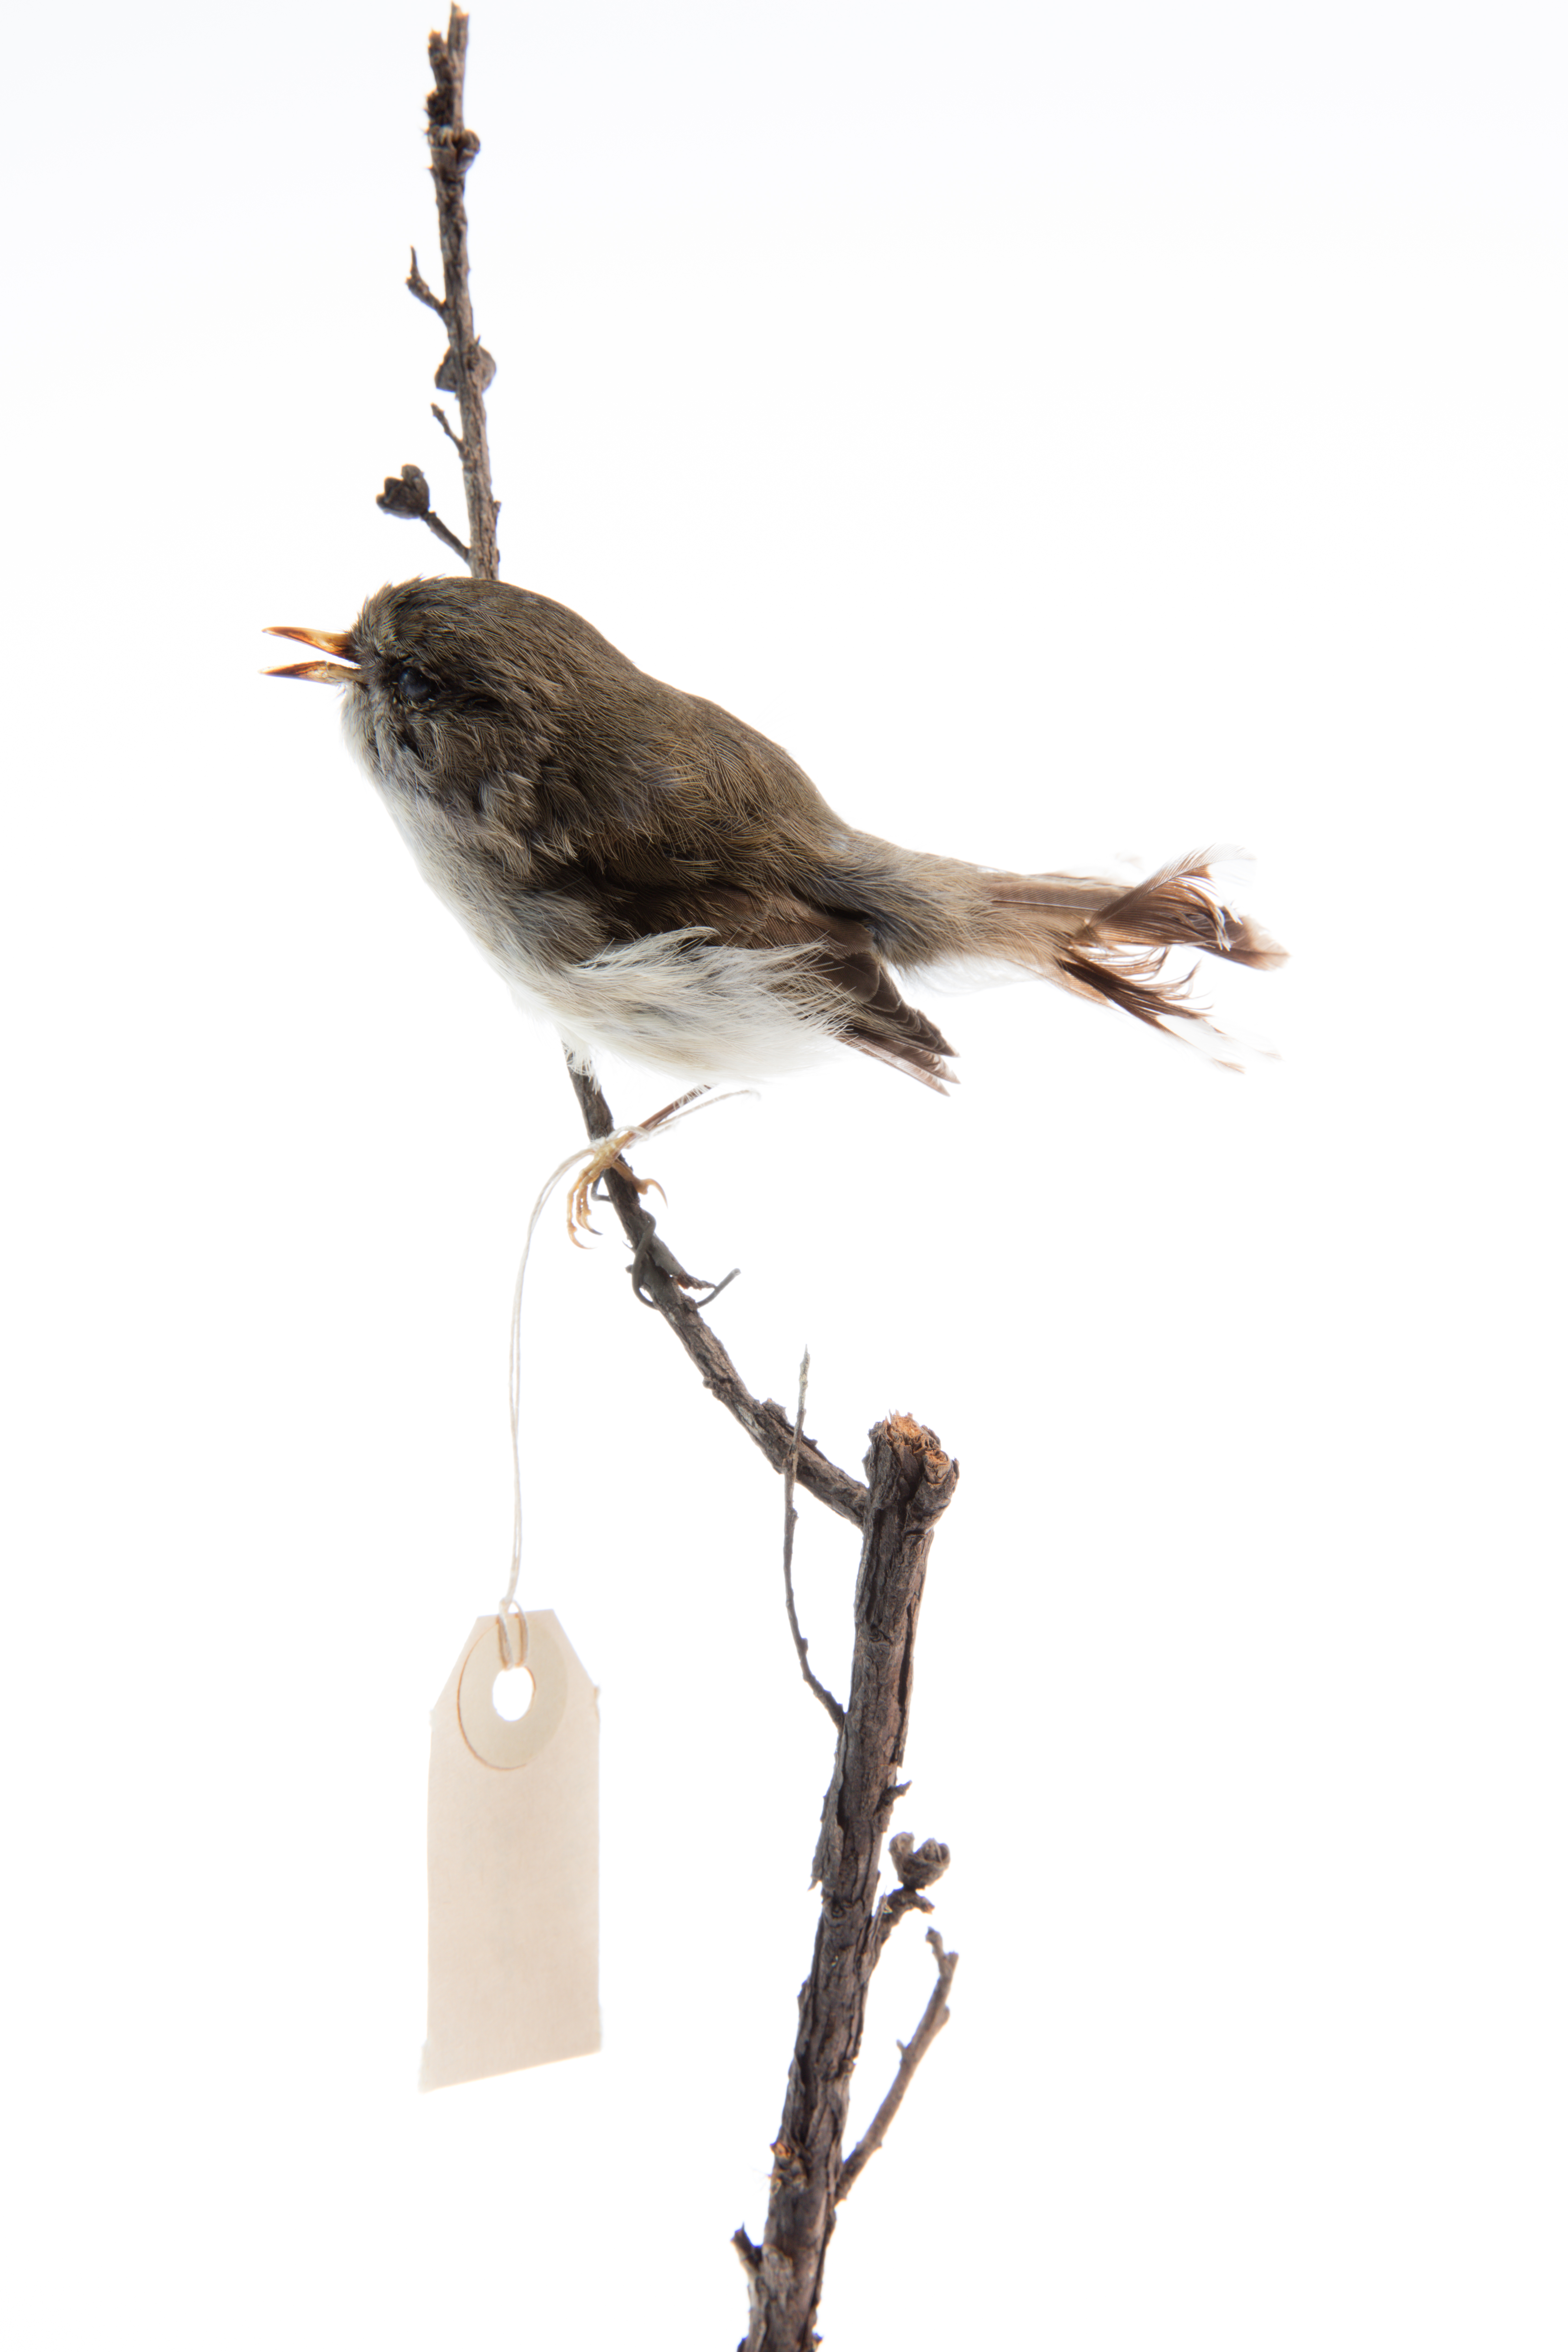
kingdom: Animalia
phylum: Chordata
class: Aves
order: Passeriformes
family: Acanthizidae
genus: Gerygone
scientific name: Gerygone igata
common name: Grey gerygone
